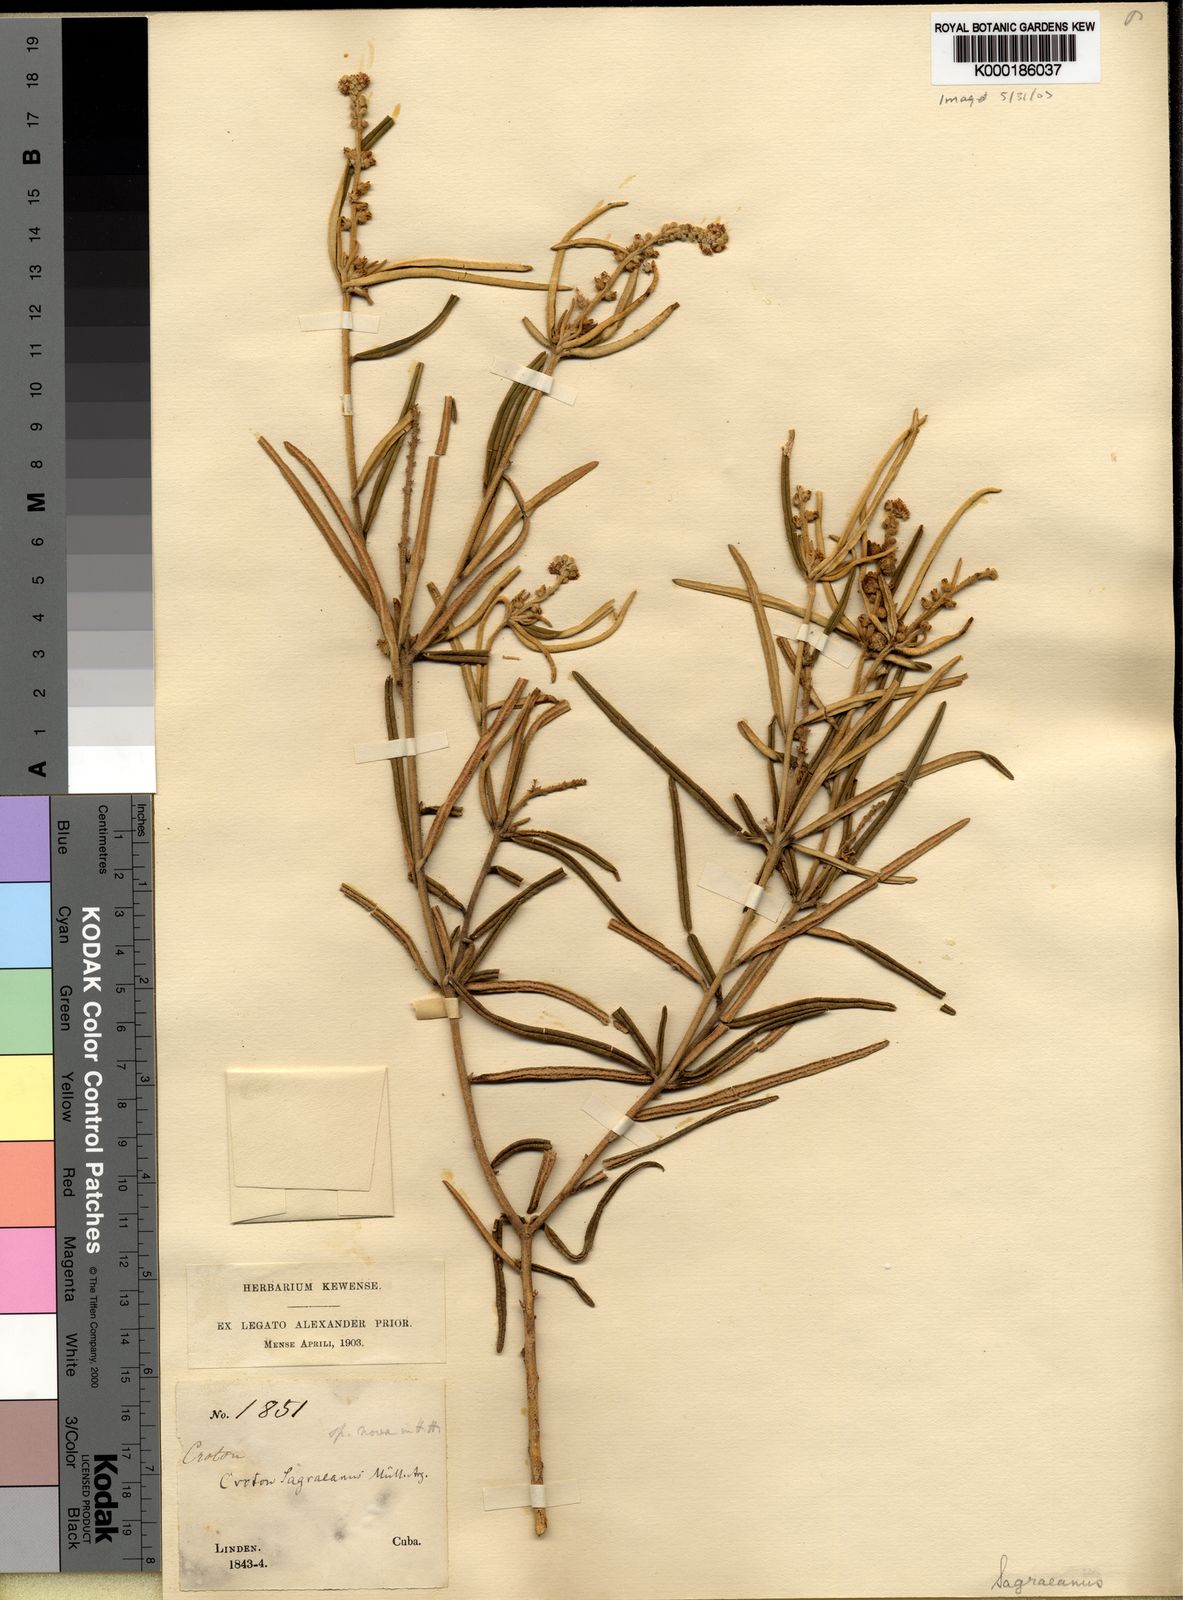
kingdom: Plantae
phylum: Tracheophyta
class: Magnoliopsida
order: Malpighiales
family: Euphorbiaceae
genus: Croton
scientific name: Croton
